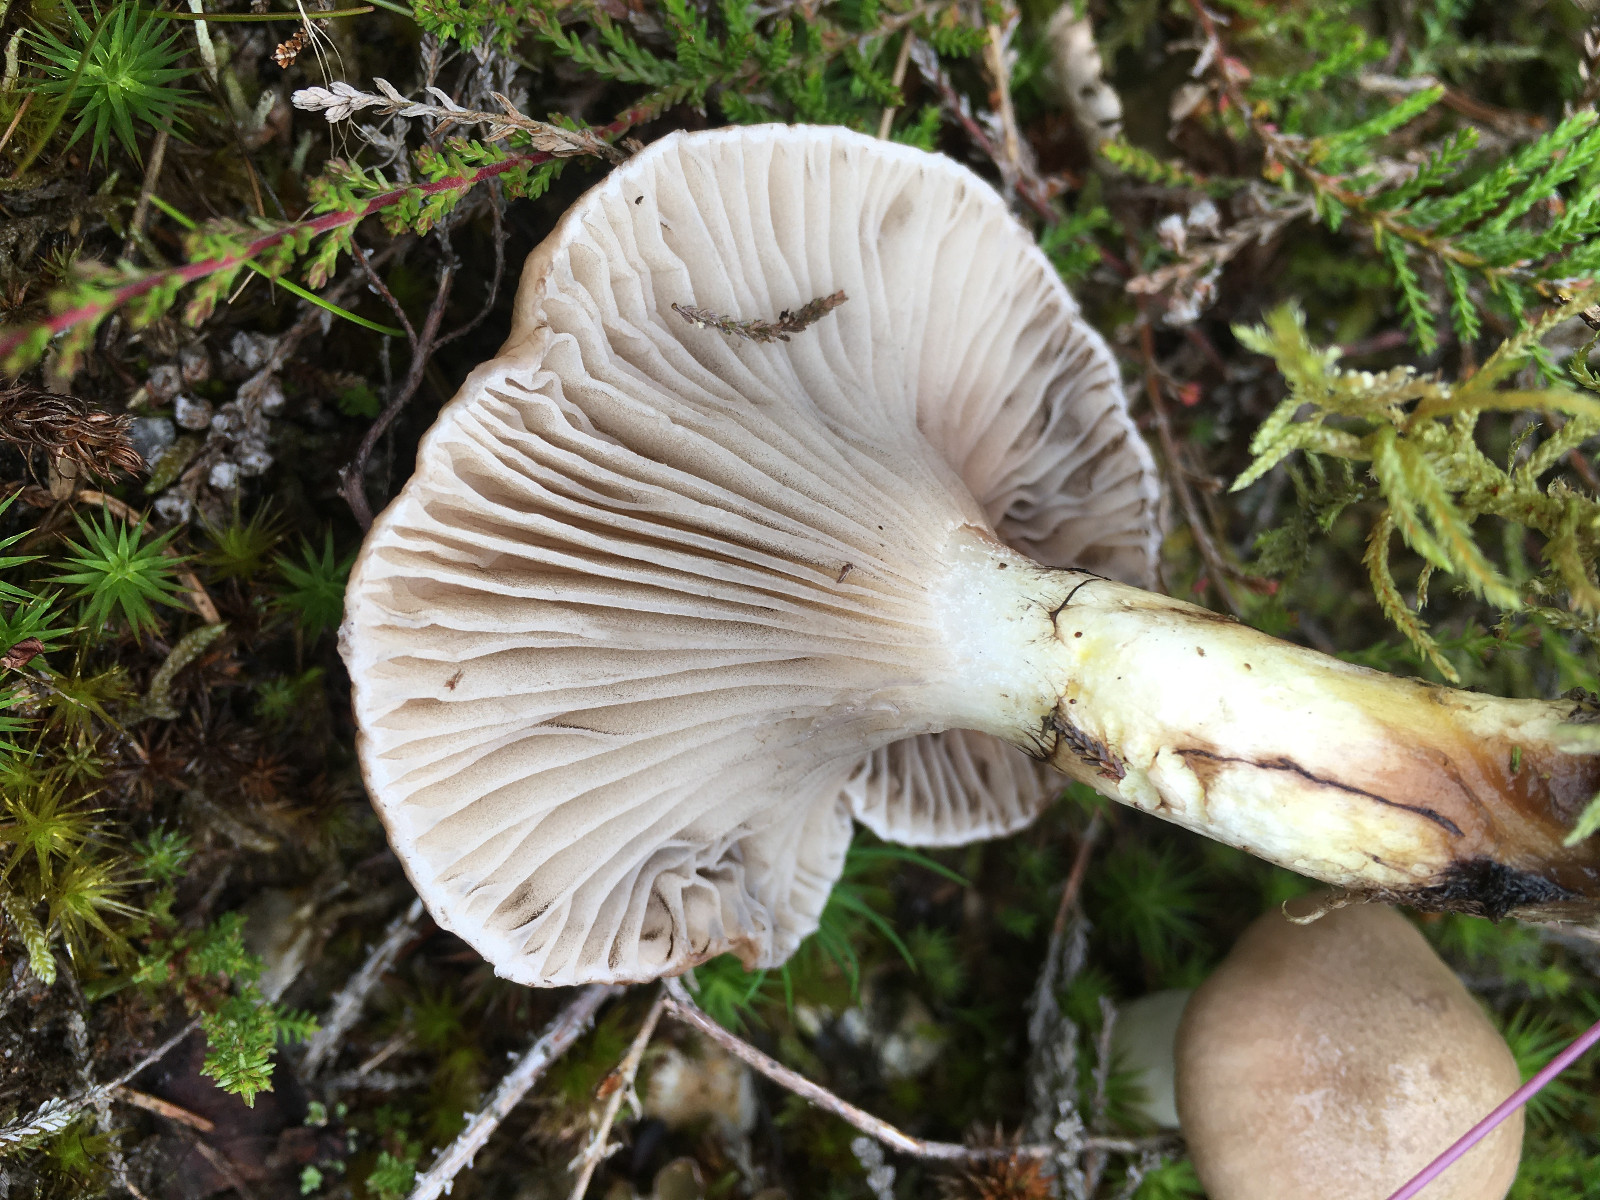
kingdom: Fungi
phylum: Basidiomycota
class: Agaricomycetes
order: Boletales
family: Gomphidiaceae
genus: Gomphidius
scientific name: Gomphidius glutinosus
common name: grå slimslør
